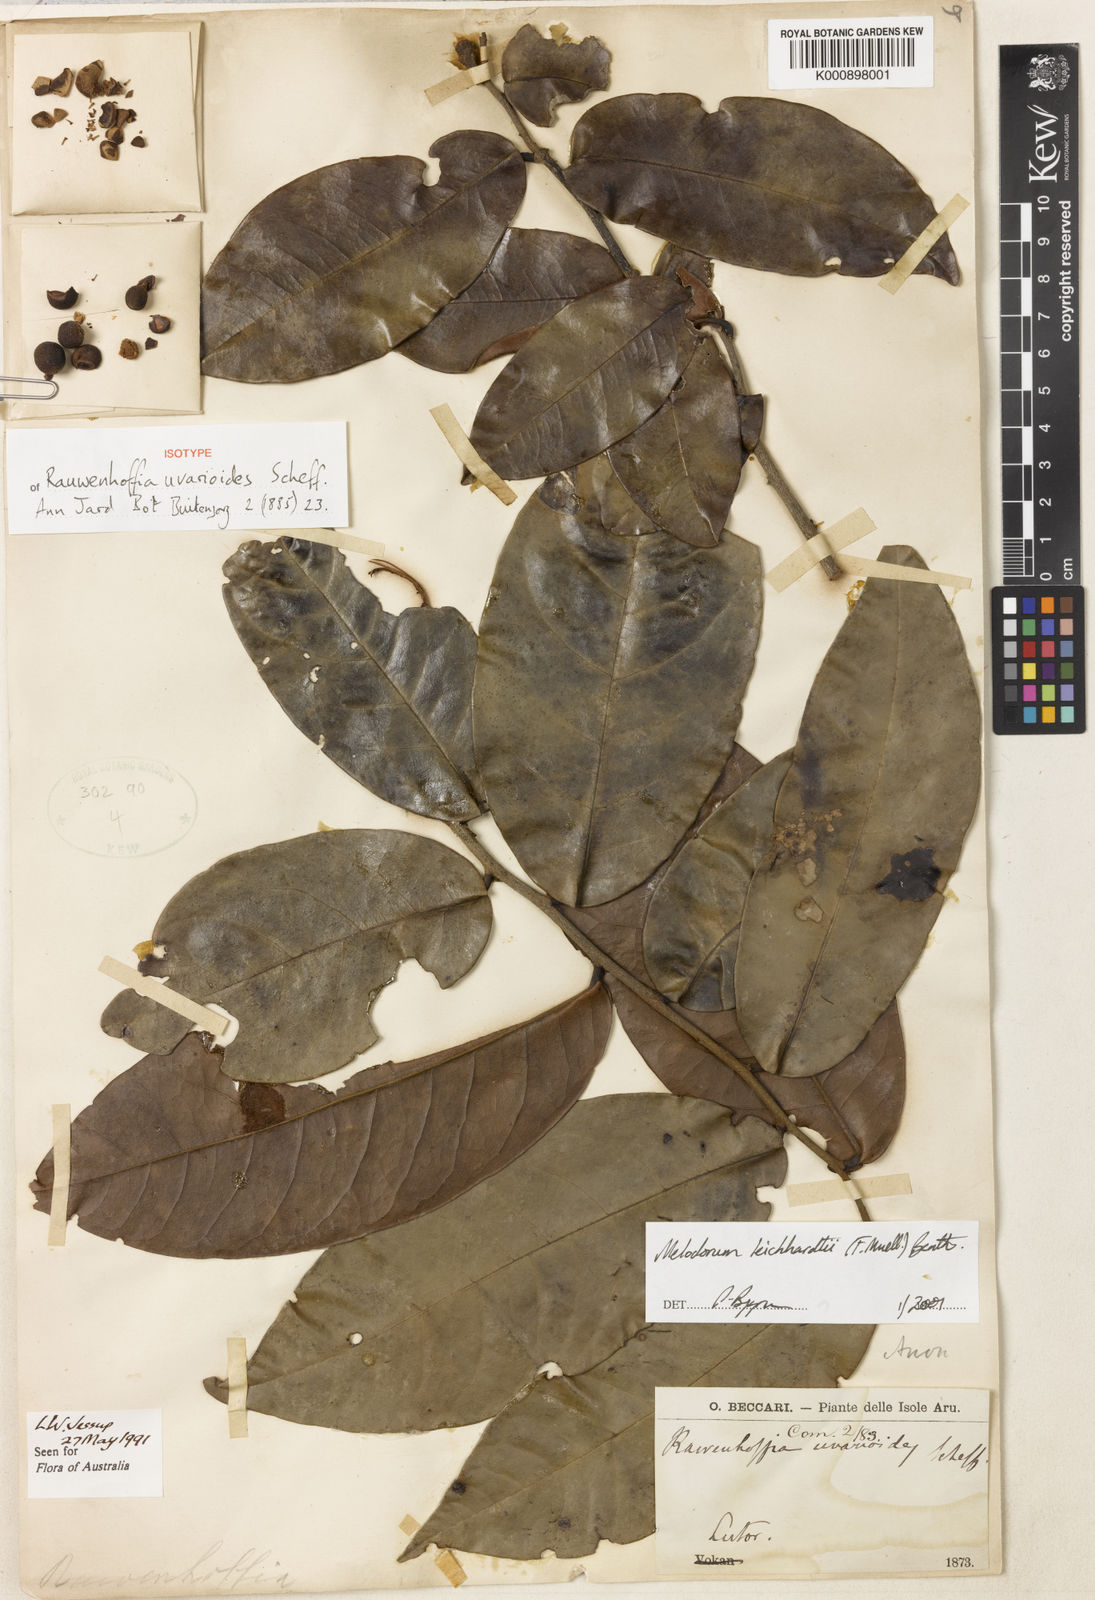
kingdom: Plantae
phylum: Tracheophyta
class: Magnoliopsida
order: Magnoliales
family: Annonaceae
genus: Melodorum
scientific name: Melodorum leichhardtii
